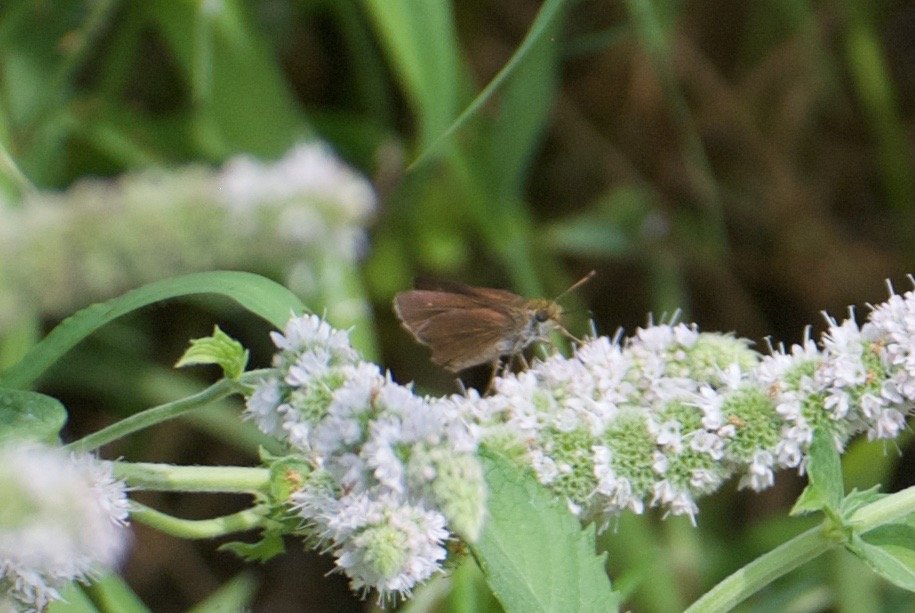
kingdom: Animalia
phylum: Arthropoda
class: Insecta
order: Lepidoptera
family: Hesperiidae
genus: Euphyes
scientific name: Euphyes vestris
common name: Dun Skipper
